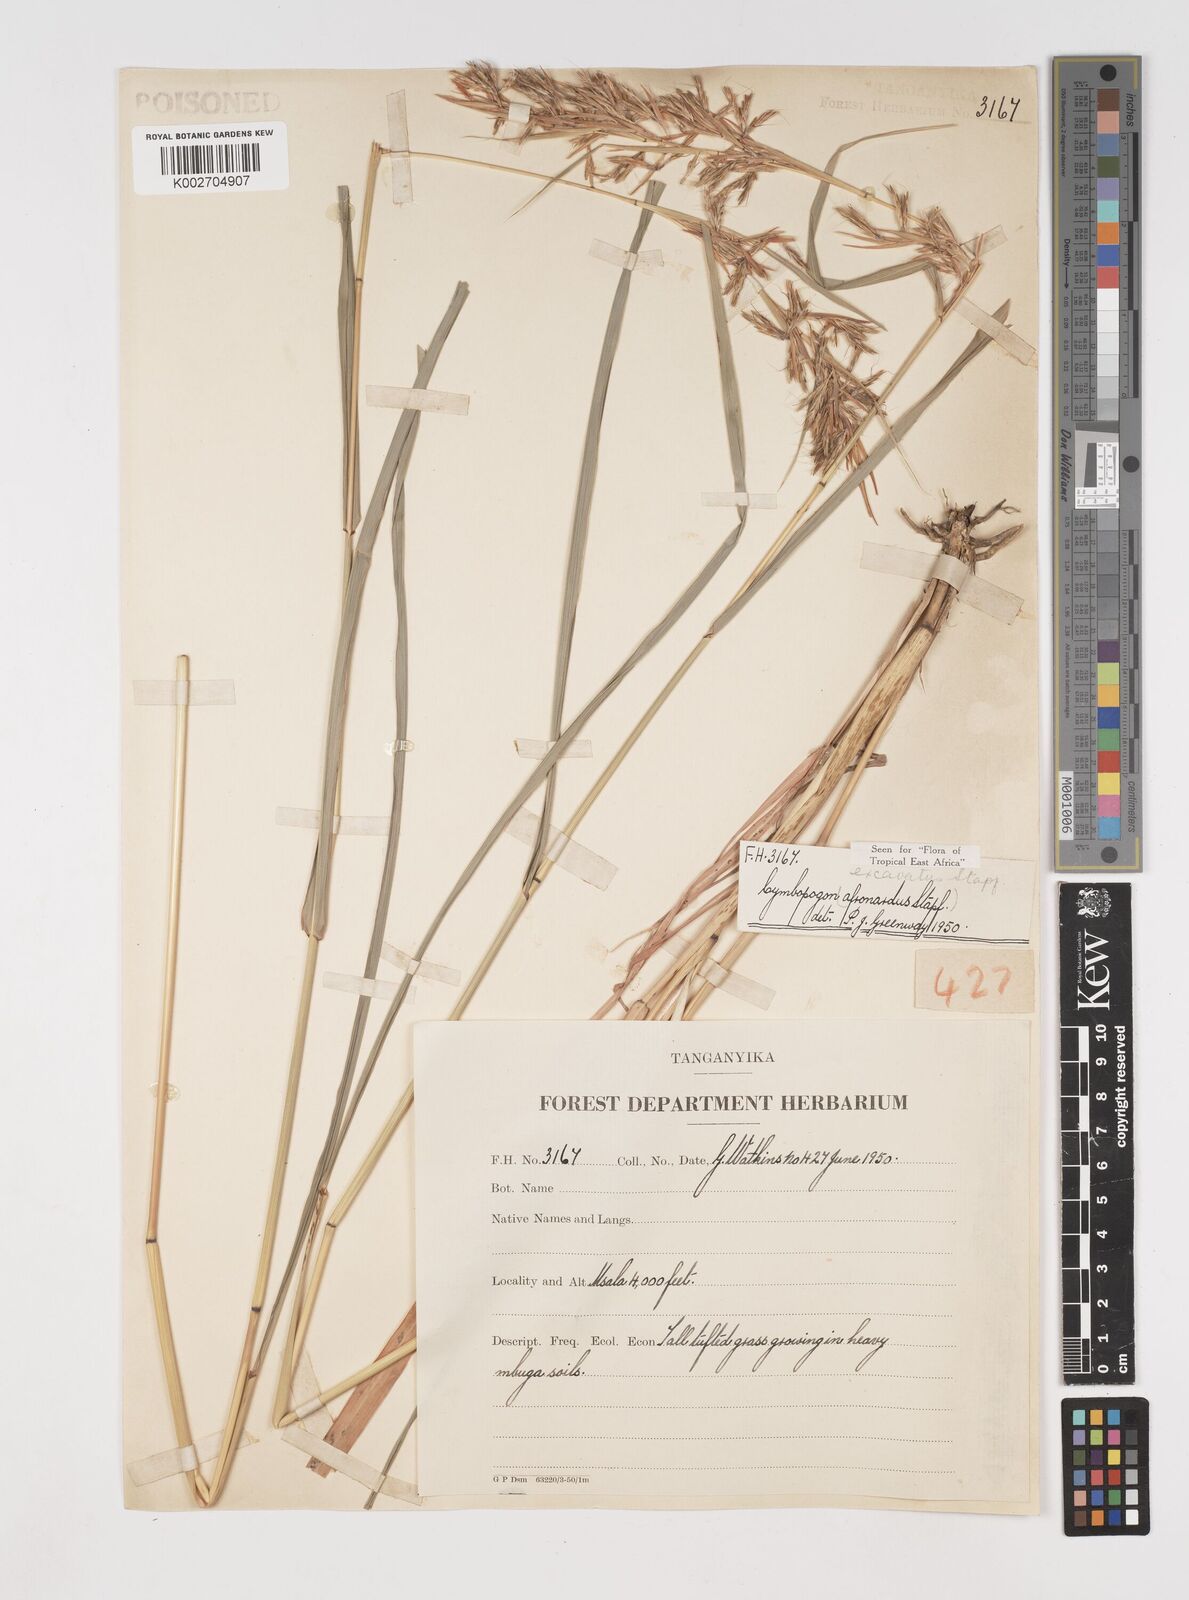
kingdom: Plantae
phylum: Tracheophyta
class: Liliopsida
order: Poales
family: Poaceae
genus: Cymbopogon
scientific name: Cymbopogon caesius
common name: Kachi grass
